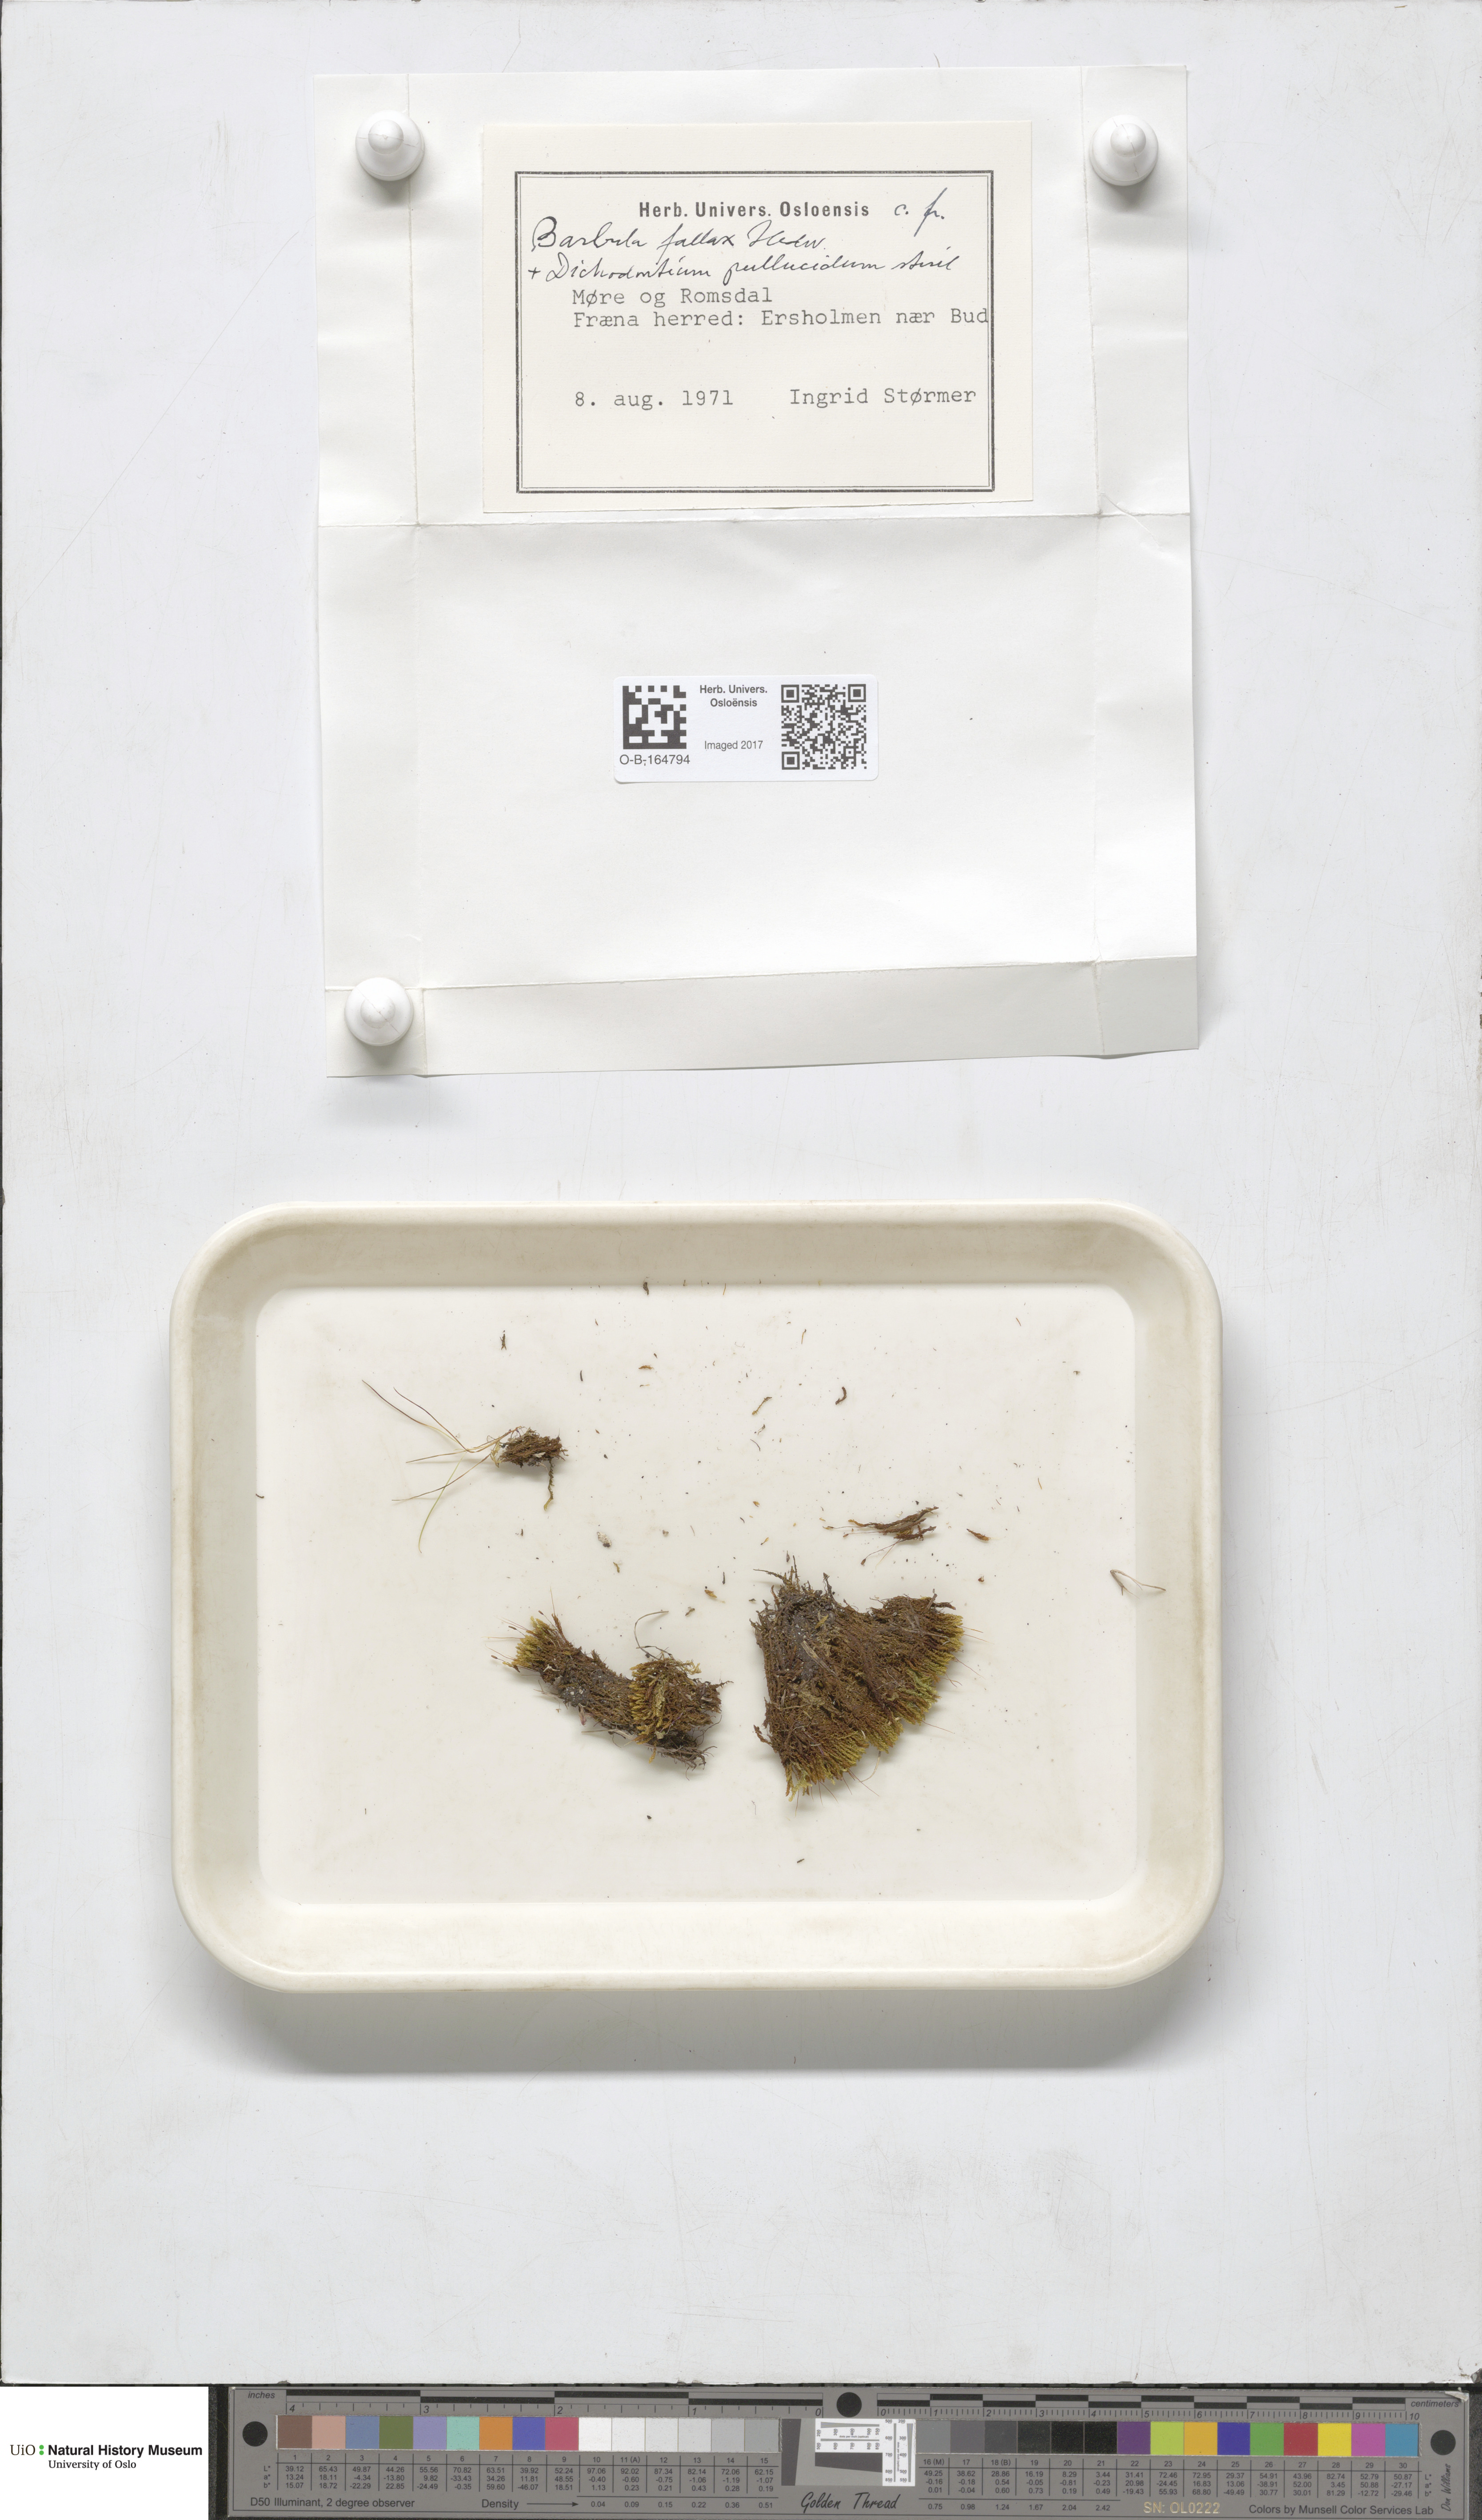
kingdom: Plantae
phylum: Bryophyta
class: Bryopsida
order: Pottiales
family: Pottiaceae
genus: Geheebia
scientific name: Geheebia fallax
